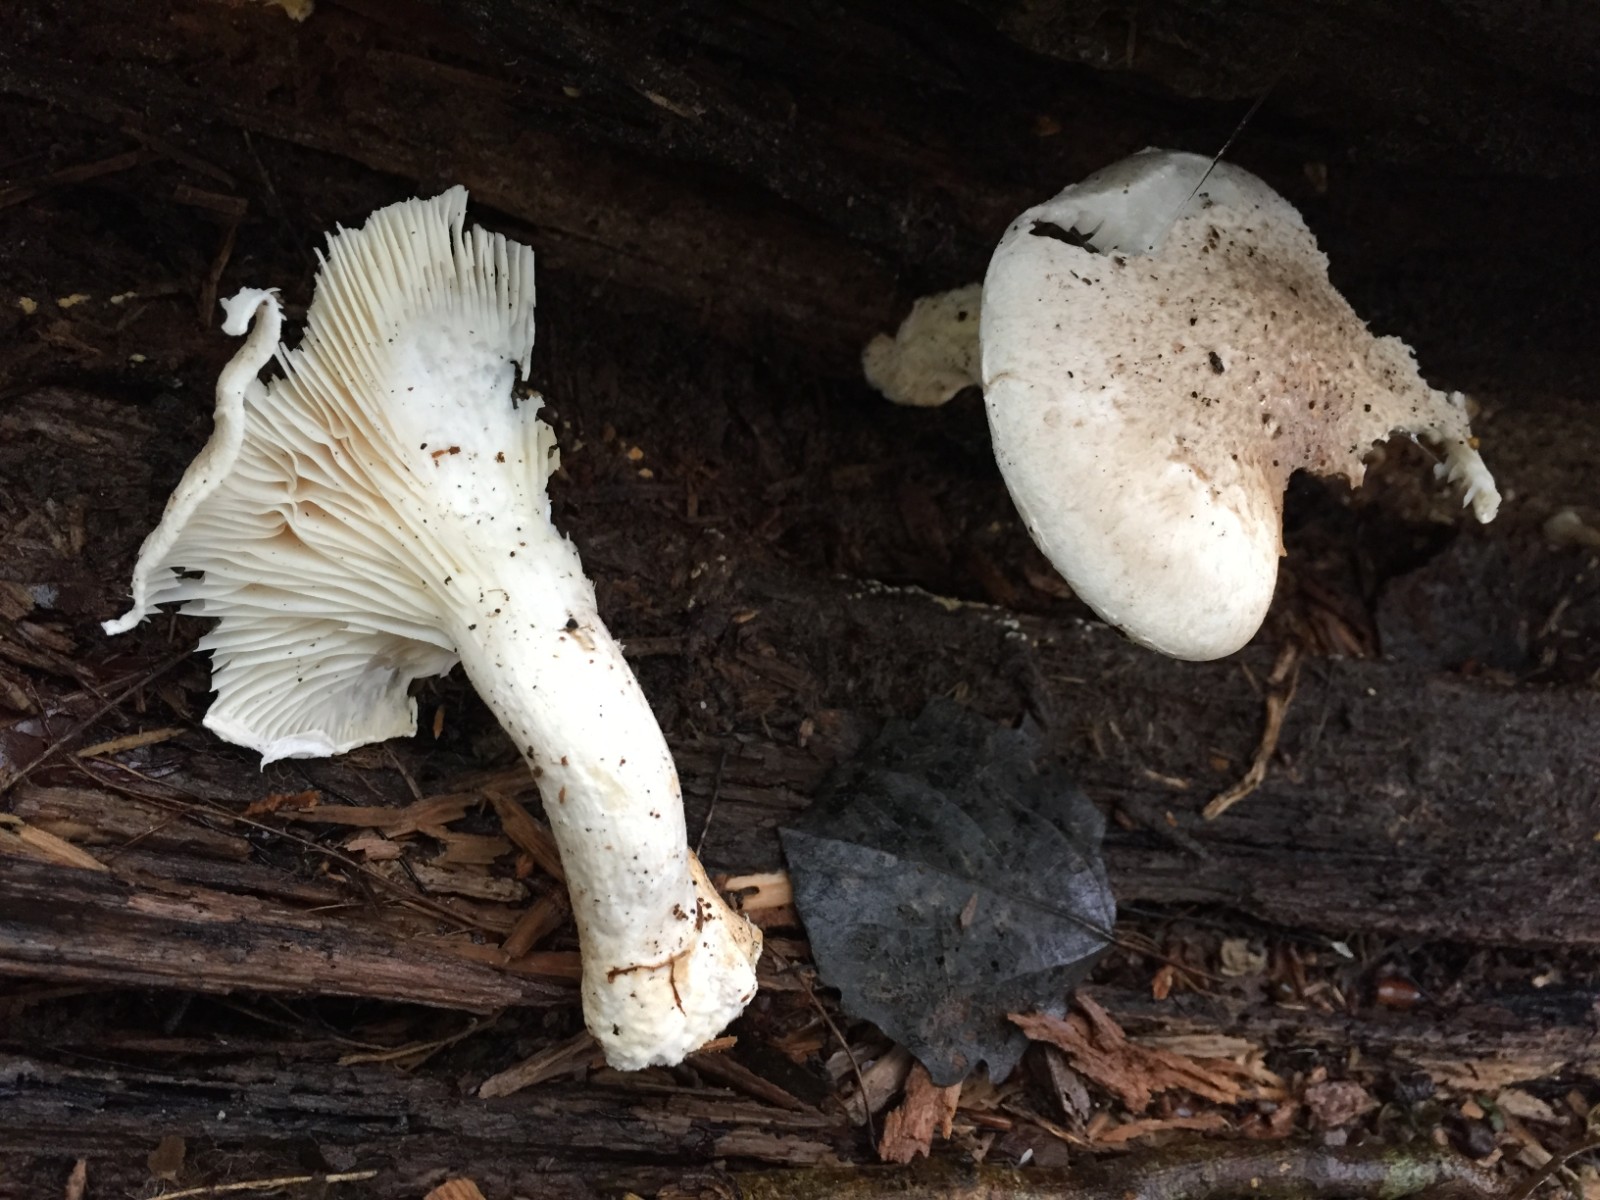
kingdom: Fungi
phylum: Basidiomycota
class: Agaricomycetes
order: Agaricales
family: Pleurotaceae
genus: Pleurotus
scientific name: Pleurotus dryinus
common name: korkagtig østershat
